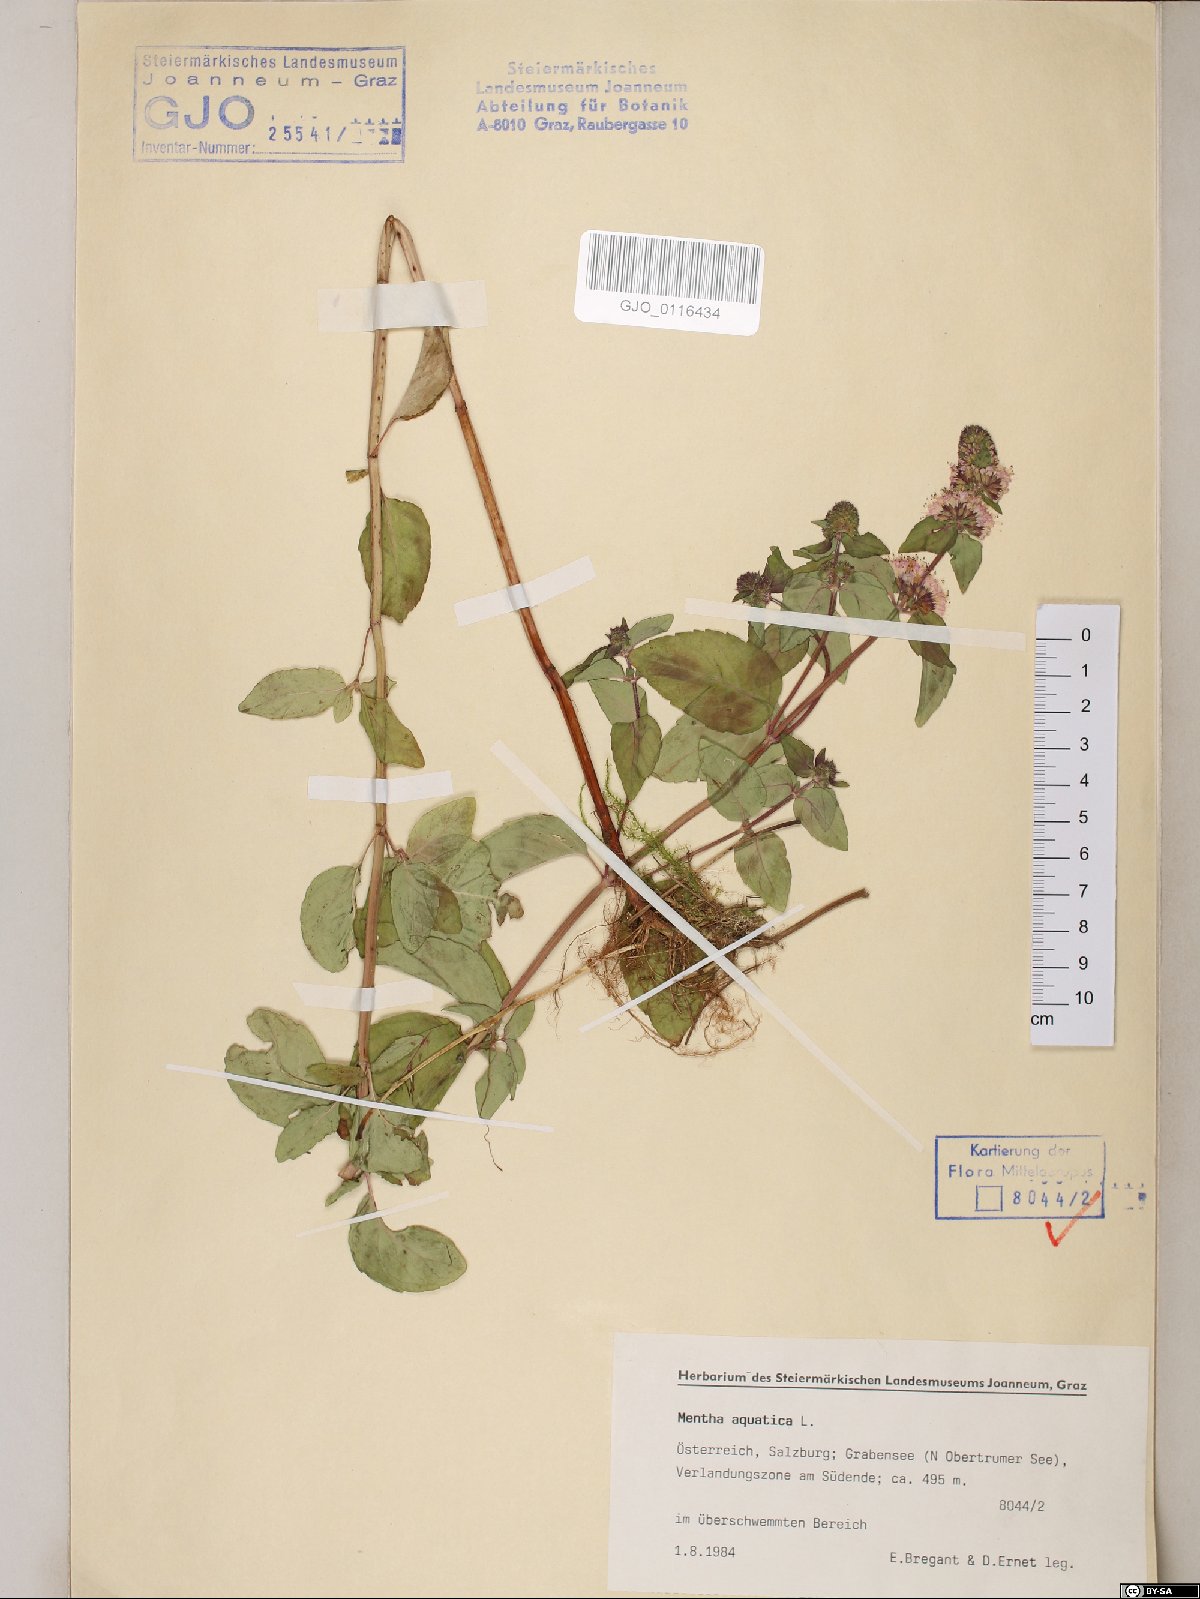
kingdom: Plantae
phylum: Tracheophyta
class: Magnoliopsida
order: Lamiales
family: Lamiaceae
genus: Mentha
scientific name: Mentha aquatica
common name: Water mint
